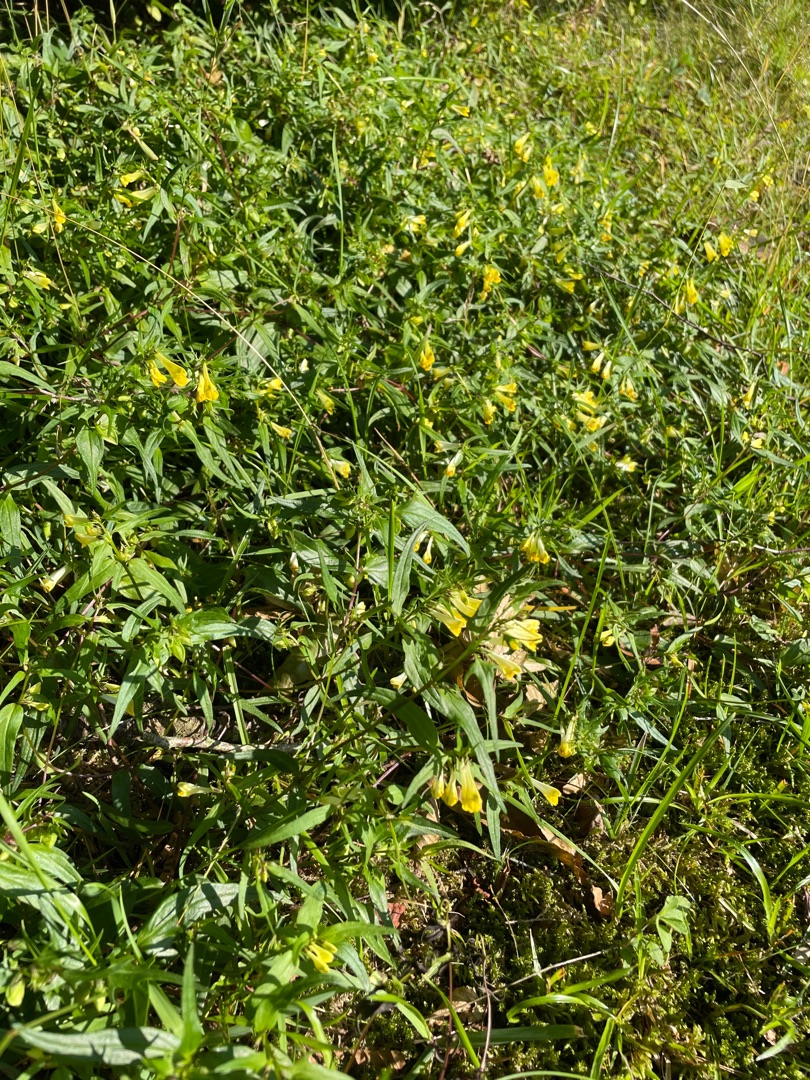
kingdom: Plantae
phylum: Tracheophyta
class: Magnoliopsida
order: Lamiales
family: Orobanchaceae
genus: Melampyrum
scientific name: Melampyrum pratense
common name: Almindelig kohvede
